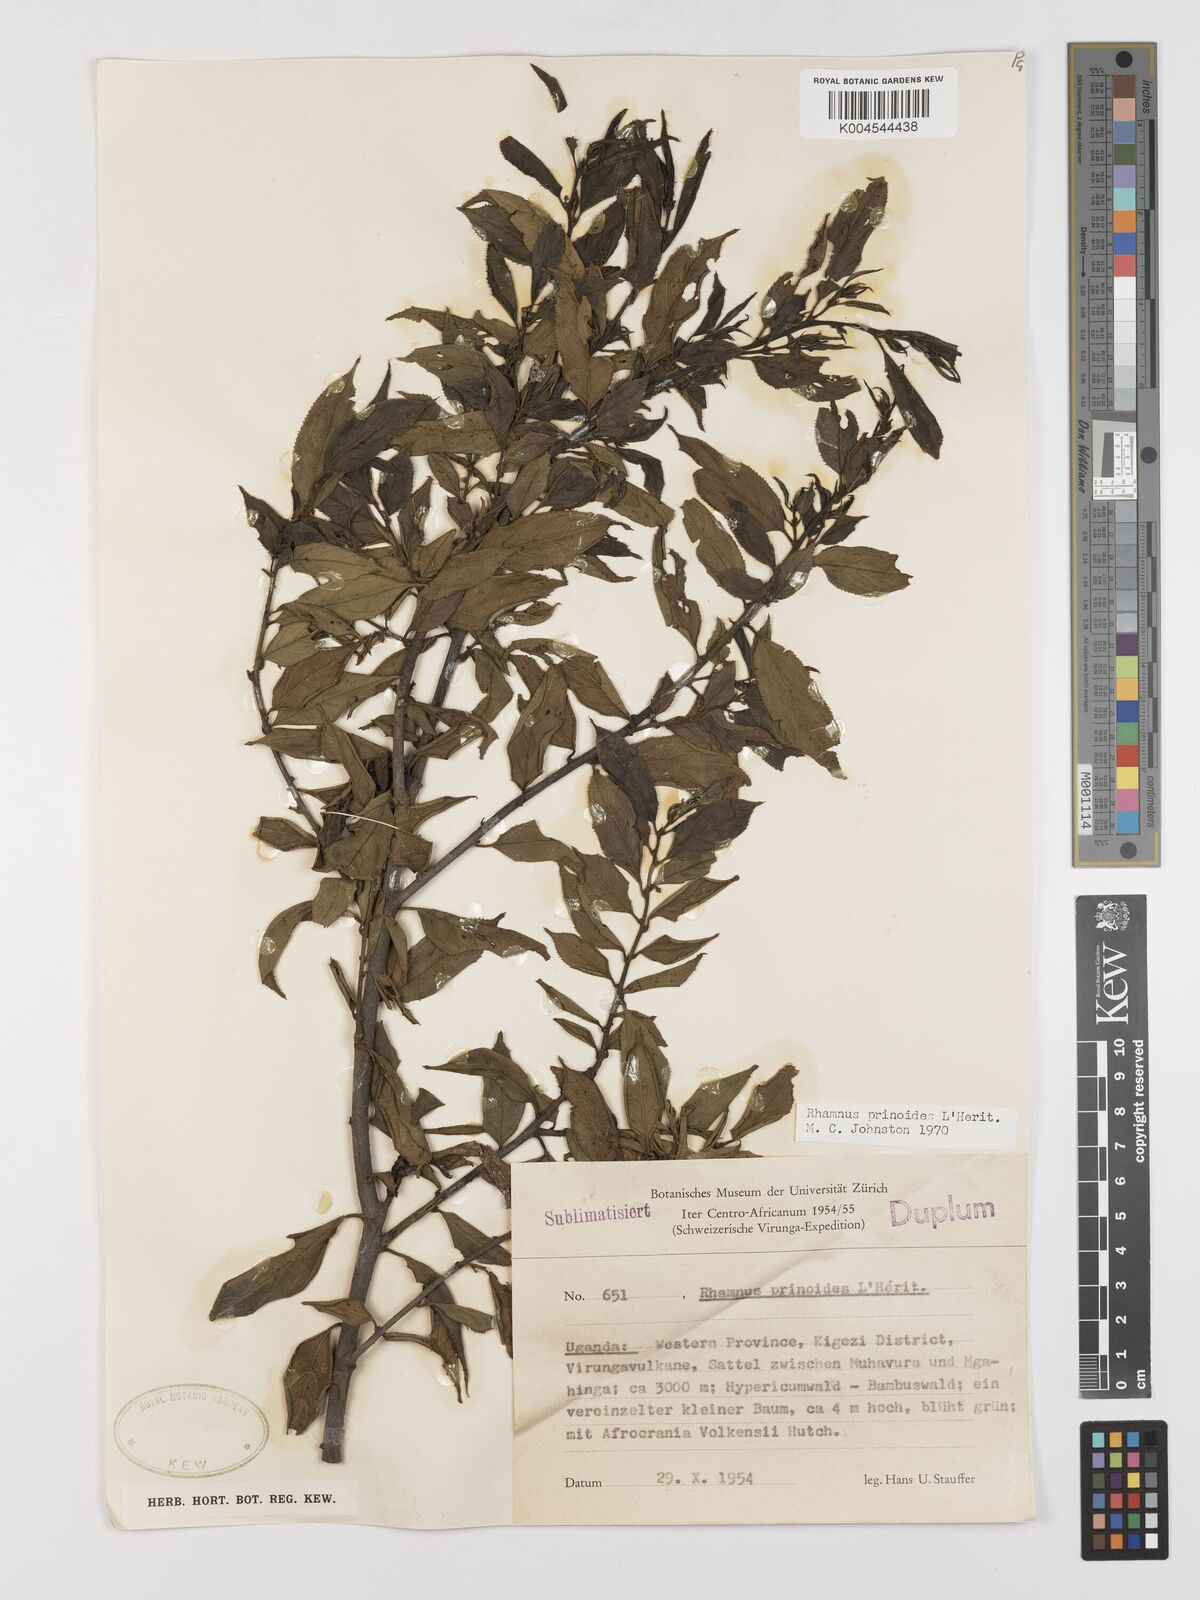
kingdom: Plantae
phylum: Tracheophyta
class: Magnoliopsida
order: Rosales
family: Rhamnaceae
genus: Rhamnus
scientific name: Rhamnus prinoides
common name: Dogwood
